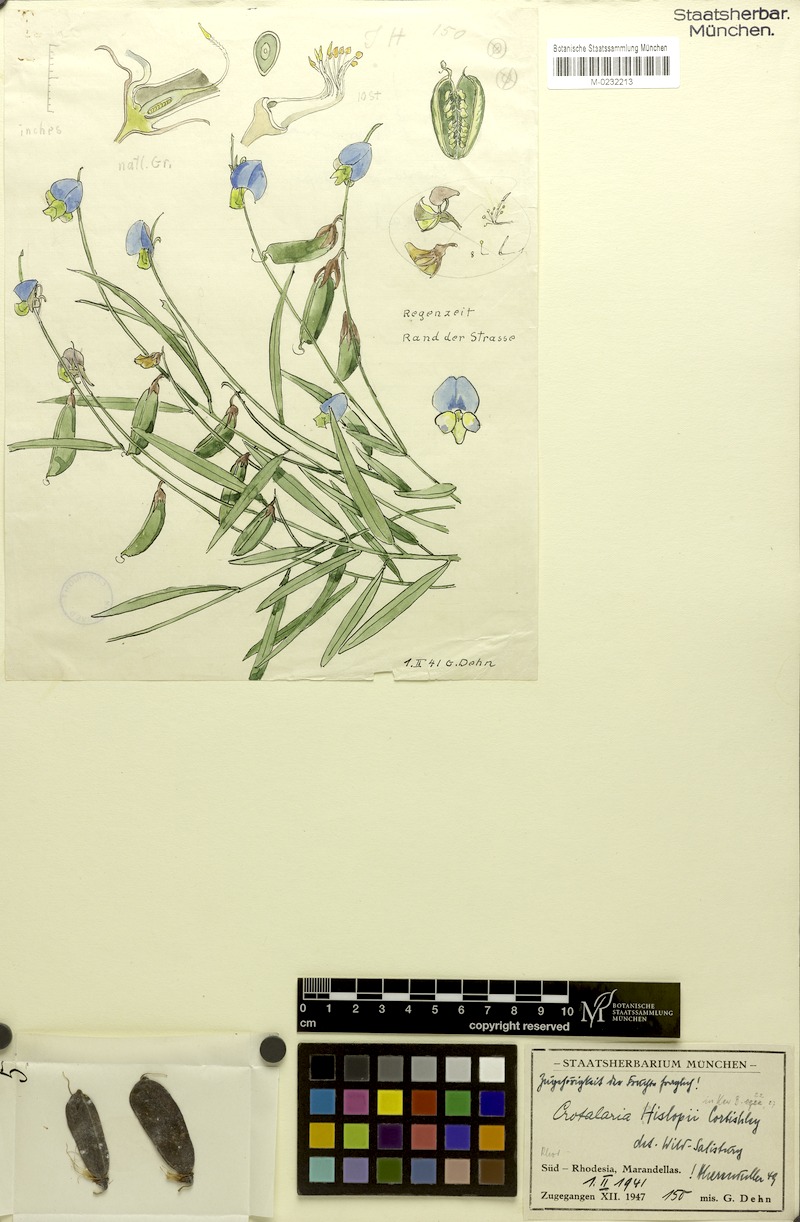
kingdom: Plantae
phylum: Tracheophyta
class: Magnoliopsida
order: Fabales
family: Fabaceae
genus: Crotalaria
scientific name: Crotalaria anisophylla
